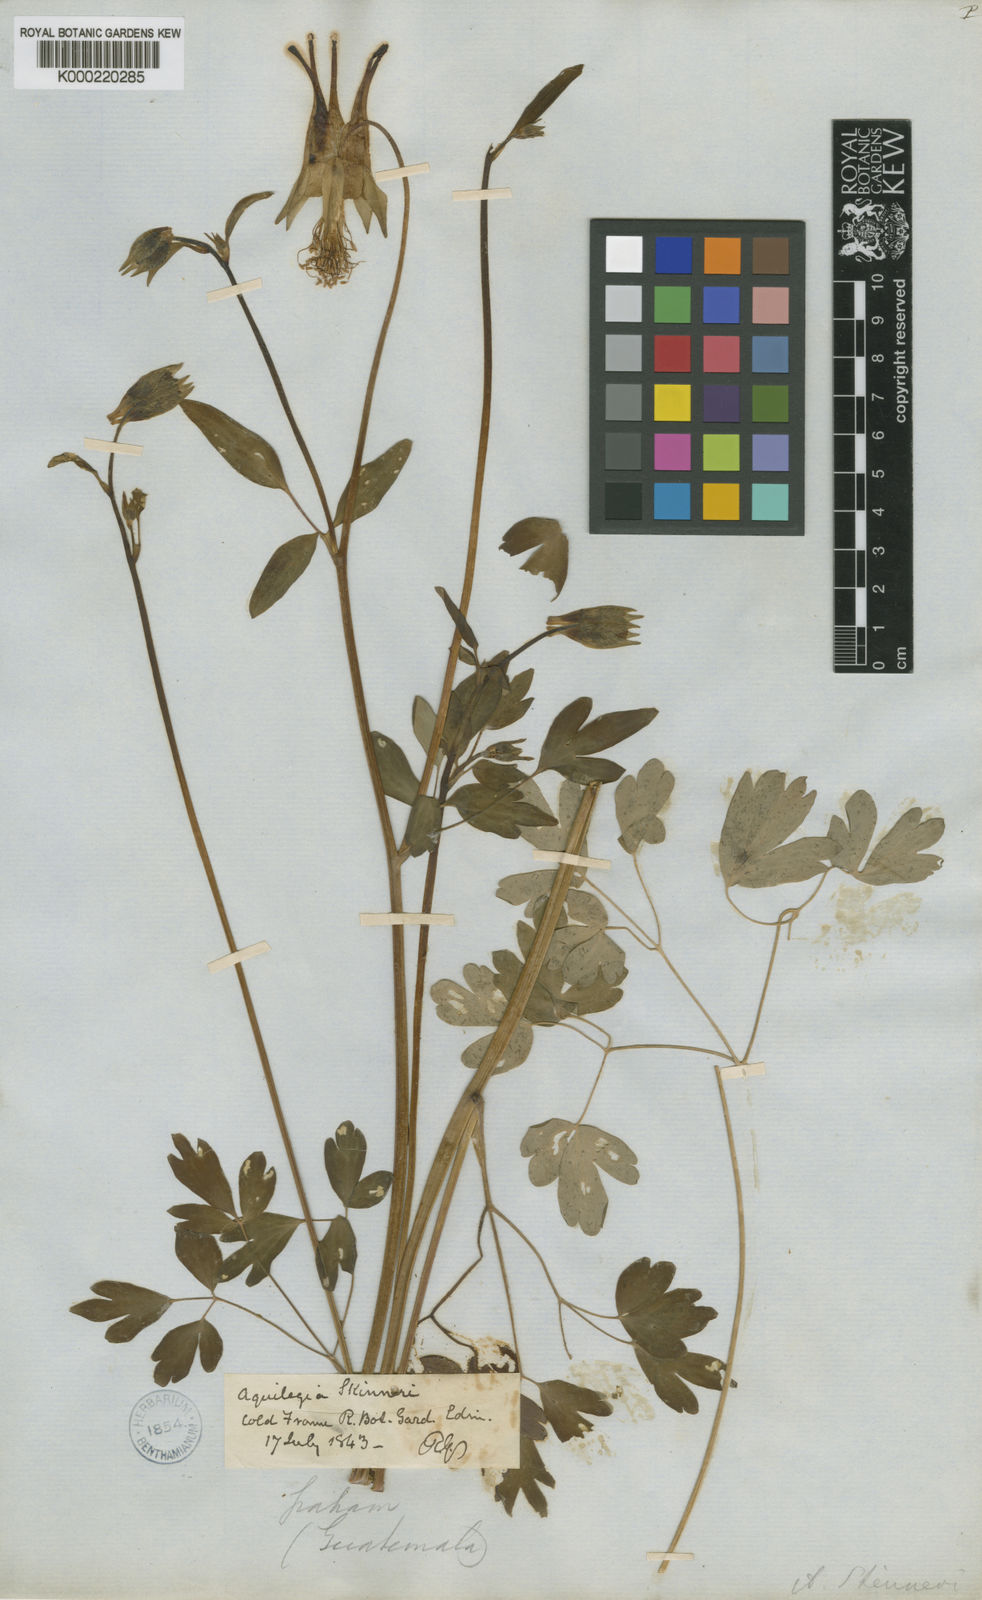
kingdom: Plantae
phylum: Tracheophyta
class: Magnoliopsida
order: Ranunculales
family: Ranunculaceae
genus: Aquilegia
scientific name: Aquilegia skinneri
